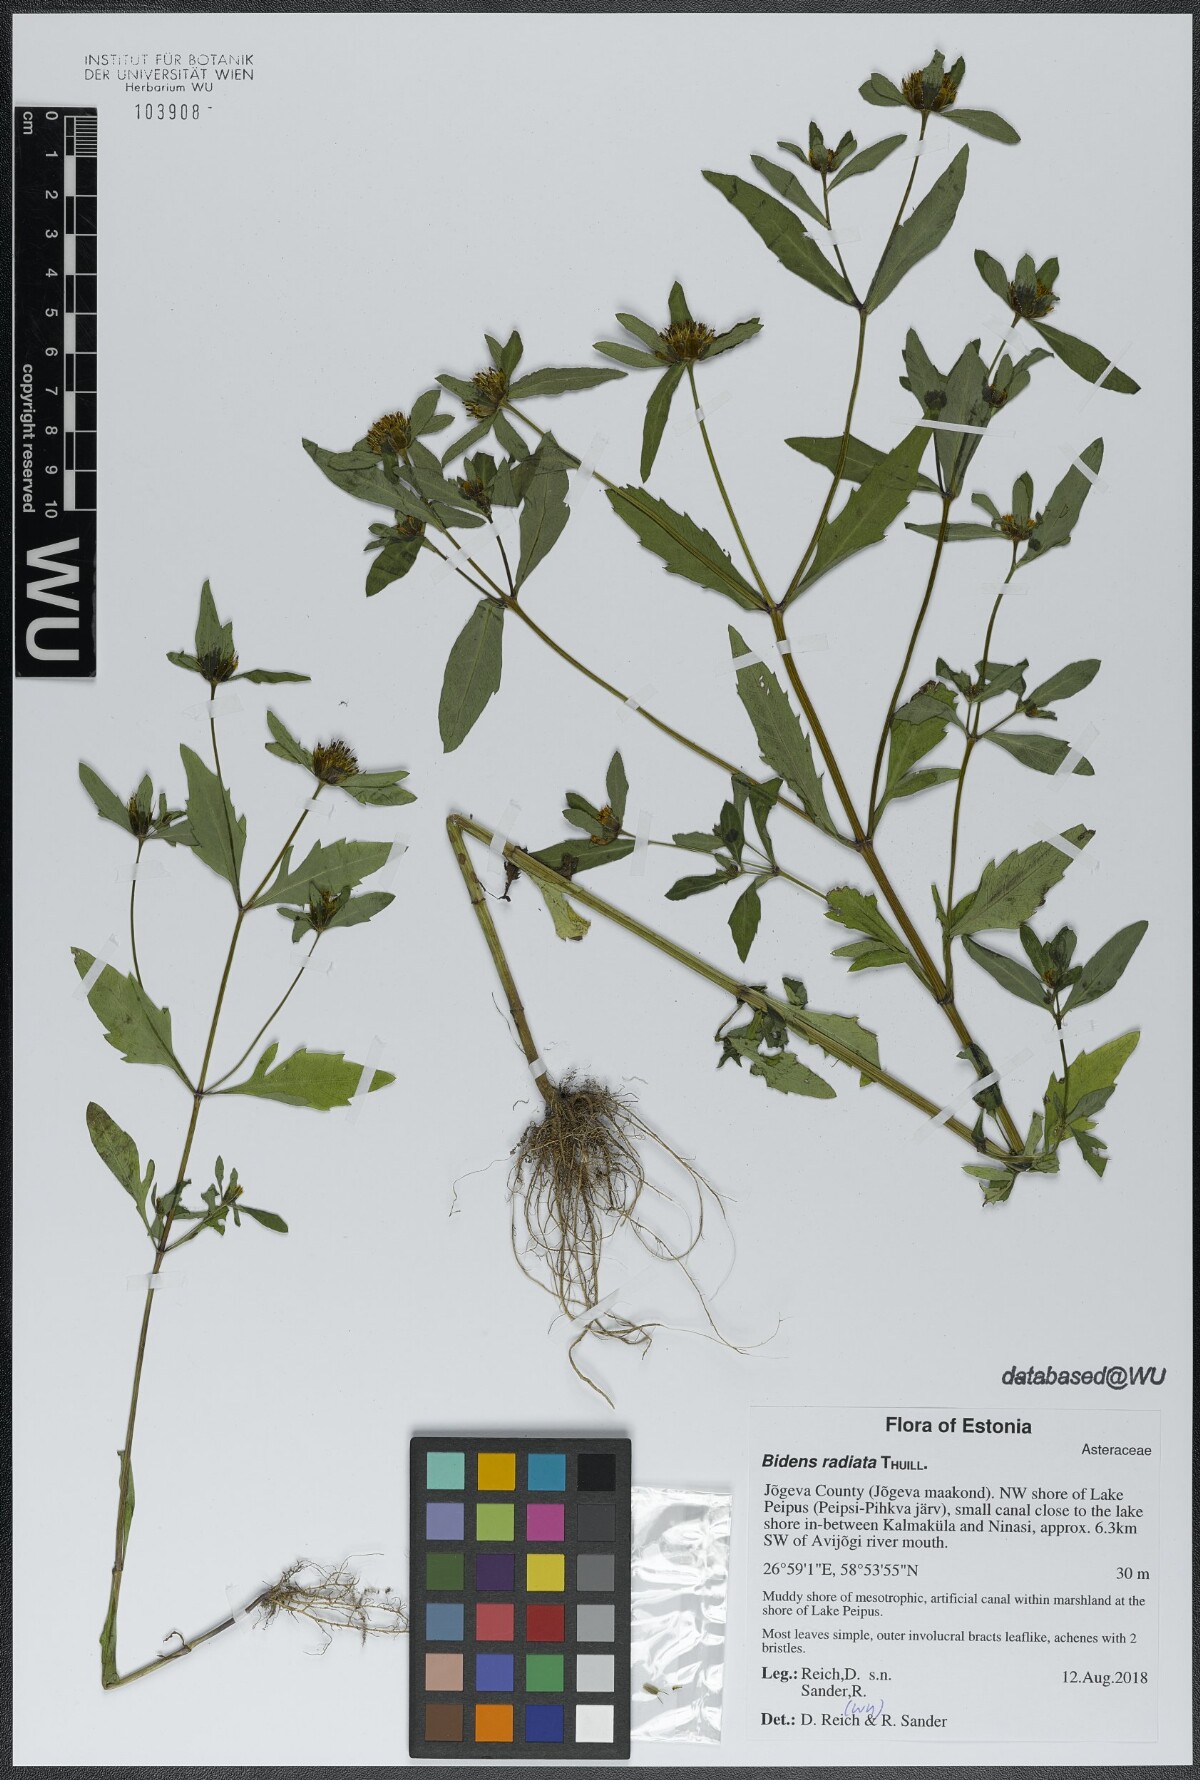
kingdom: Plantae
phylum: Tracheophyta
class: Magnoliopsida
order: Asterales
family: Asteraceae
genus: Bidens
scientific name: Bidens radiata
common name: Radiating bur-marigold
